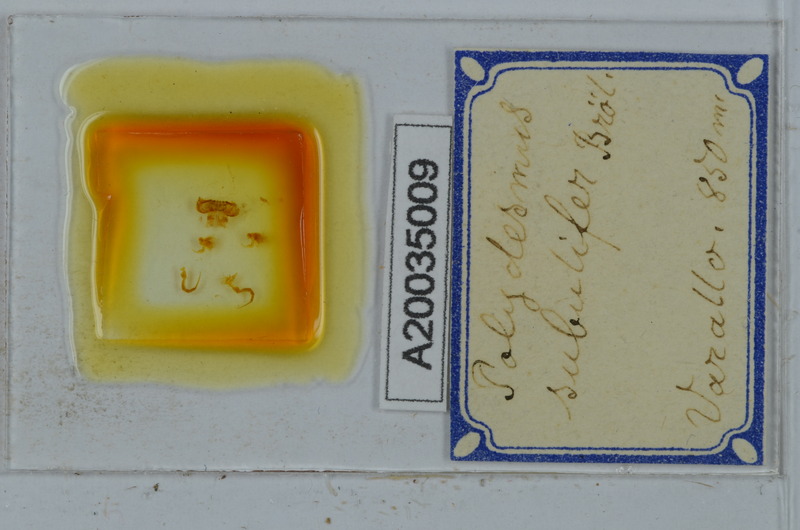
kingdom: Animalia
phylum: Arthropoda
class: Diplopoda
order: Polydesmida
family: Polydesmidae
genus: Polydesmus
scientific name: Polydesmus subulifer
